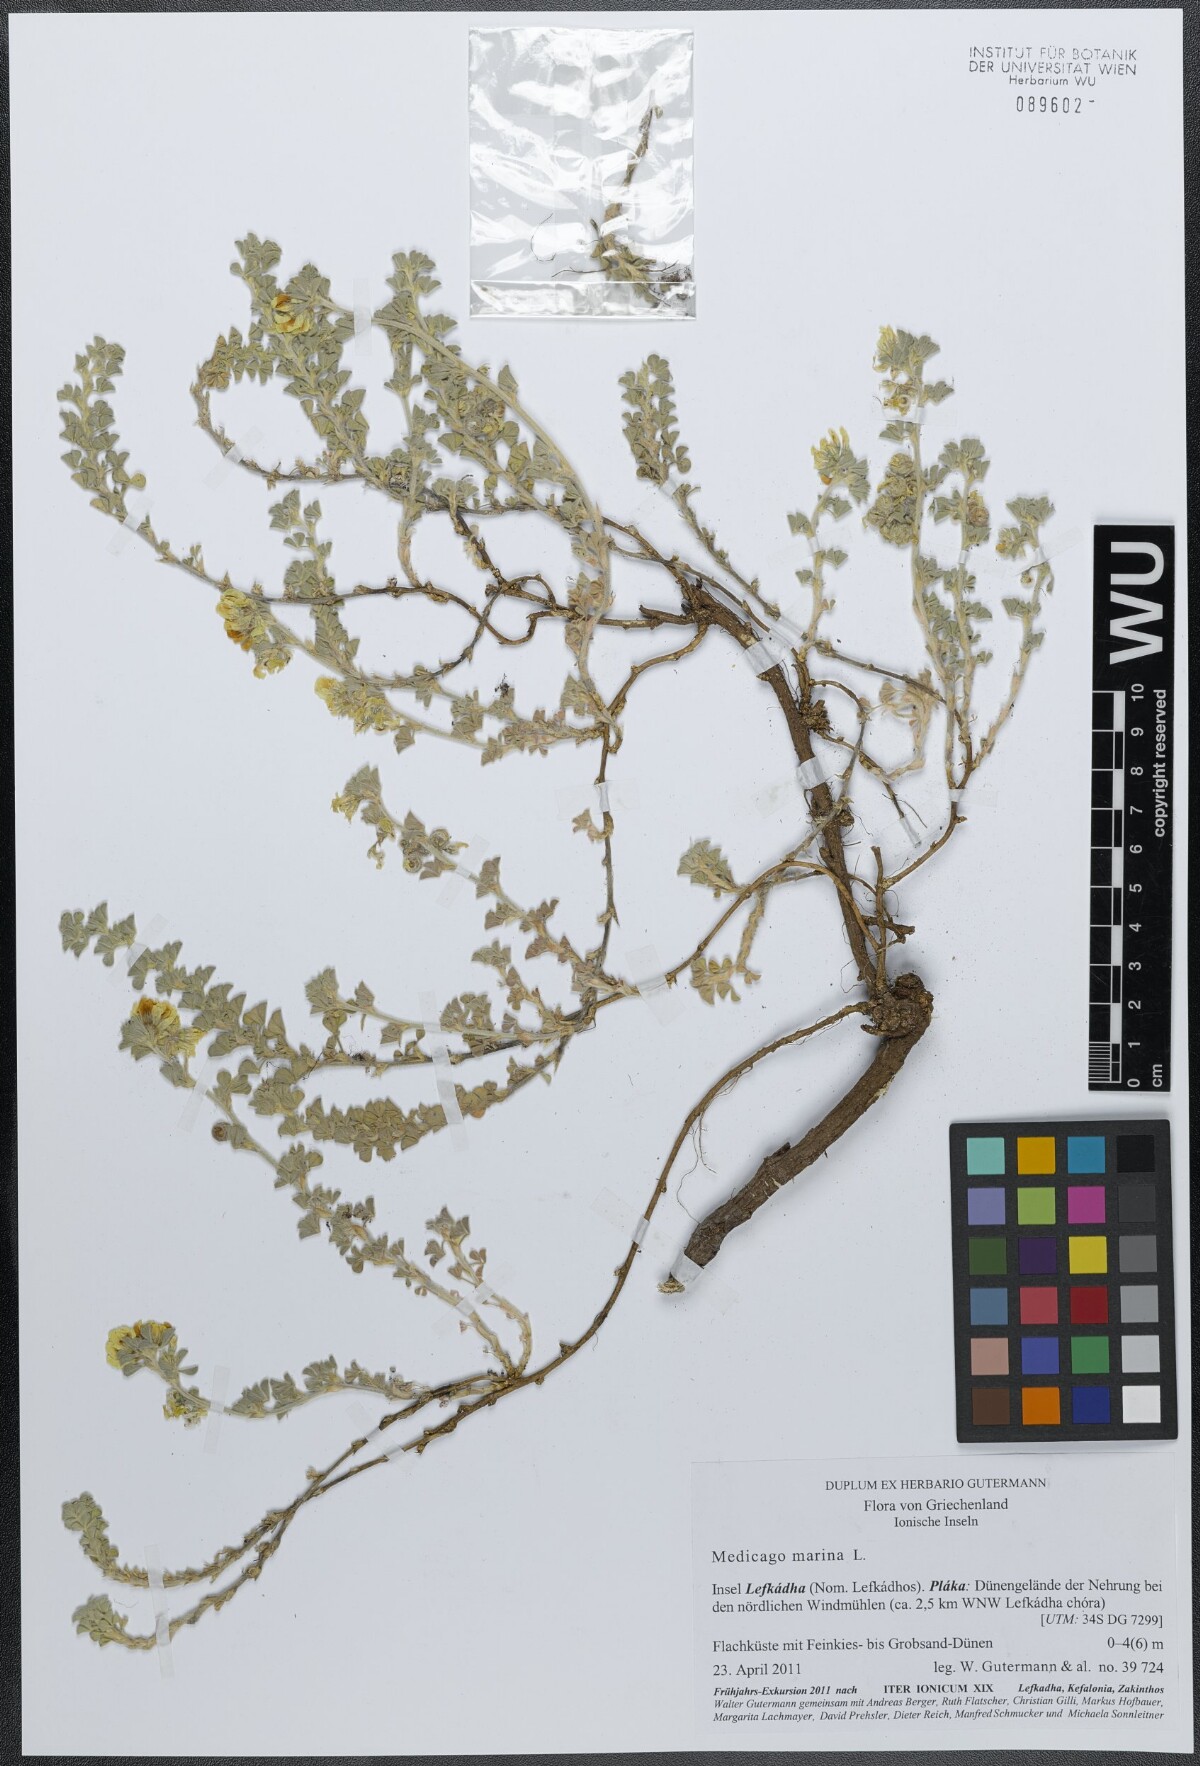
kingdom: Plantae
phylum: Tracheophyta
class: Magnoliopsida
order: Fabales
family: Fabaceae
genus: Medicago
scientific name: Medicago marina
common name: Sea medick
